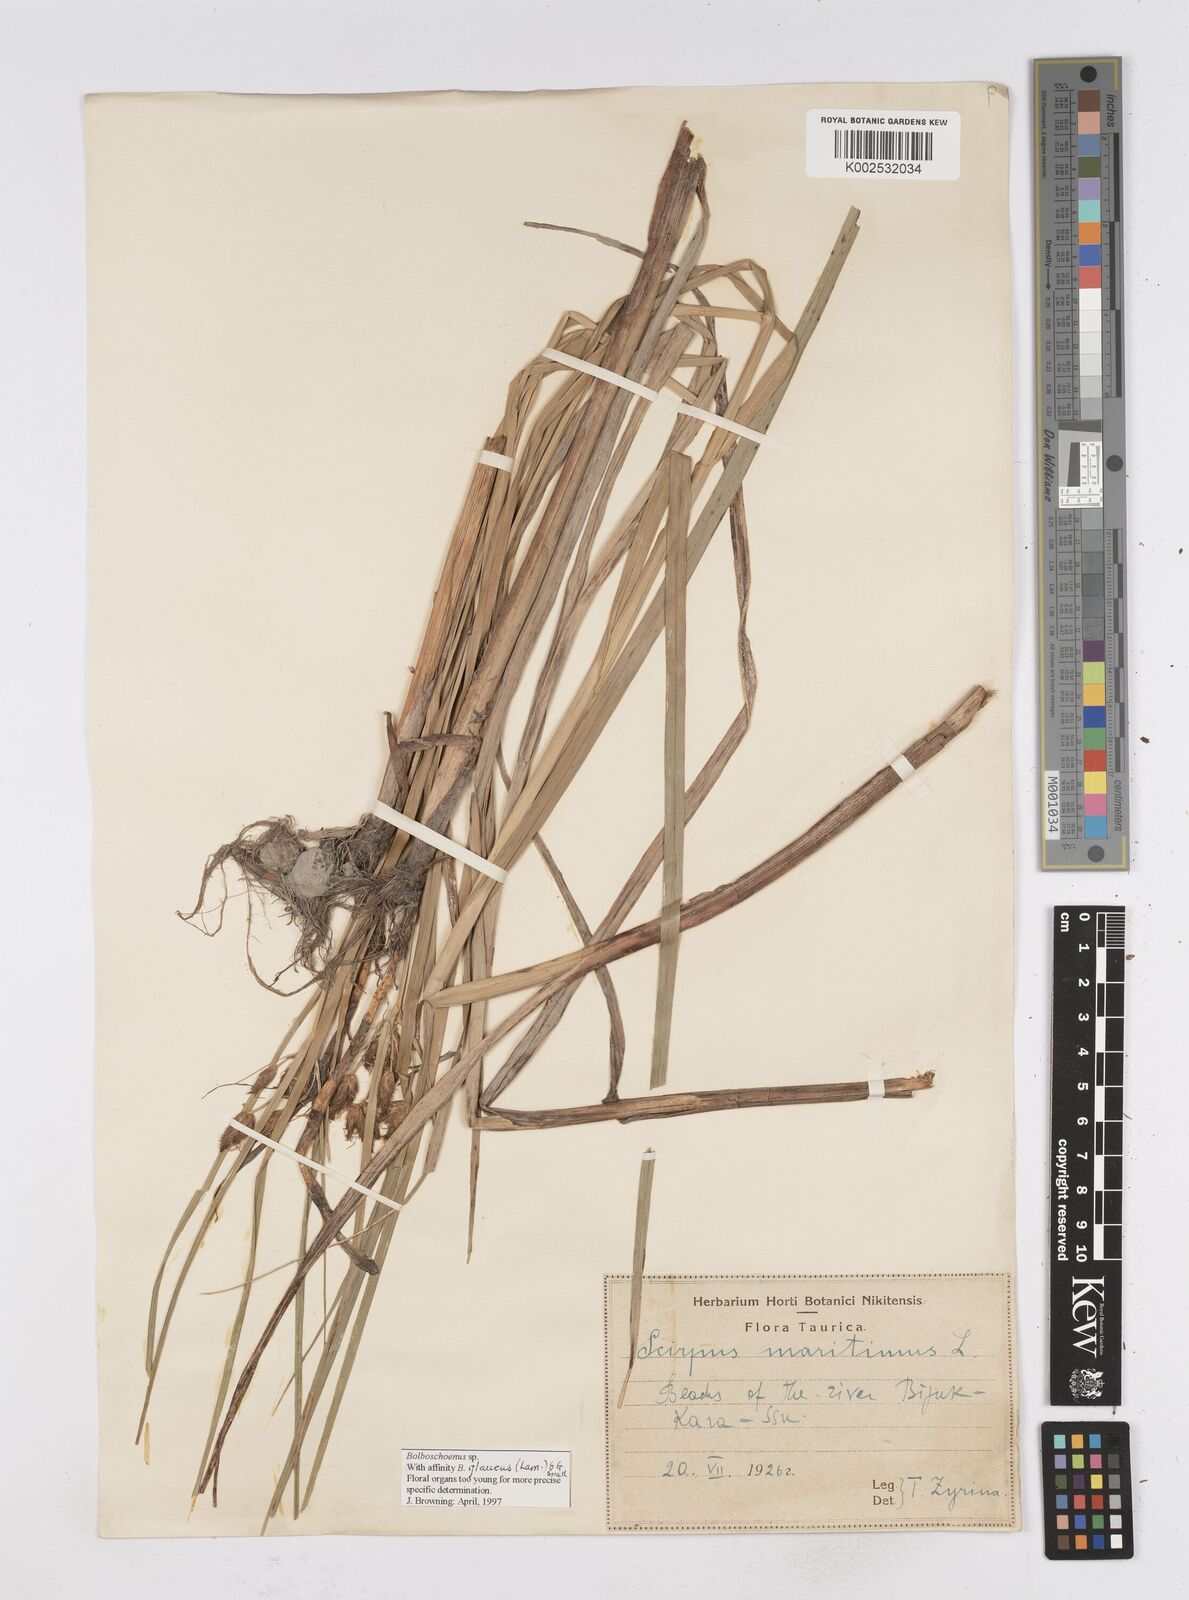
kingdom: Plantae
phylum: Tracheophyta
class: Liliopsida
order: Poales
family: Cyperaceae
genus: Bolboschoenus
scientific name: Bolboschoenus maritimus
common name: Sea club-rush
